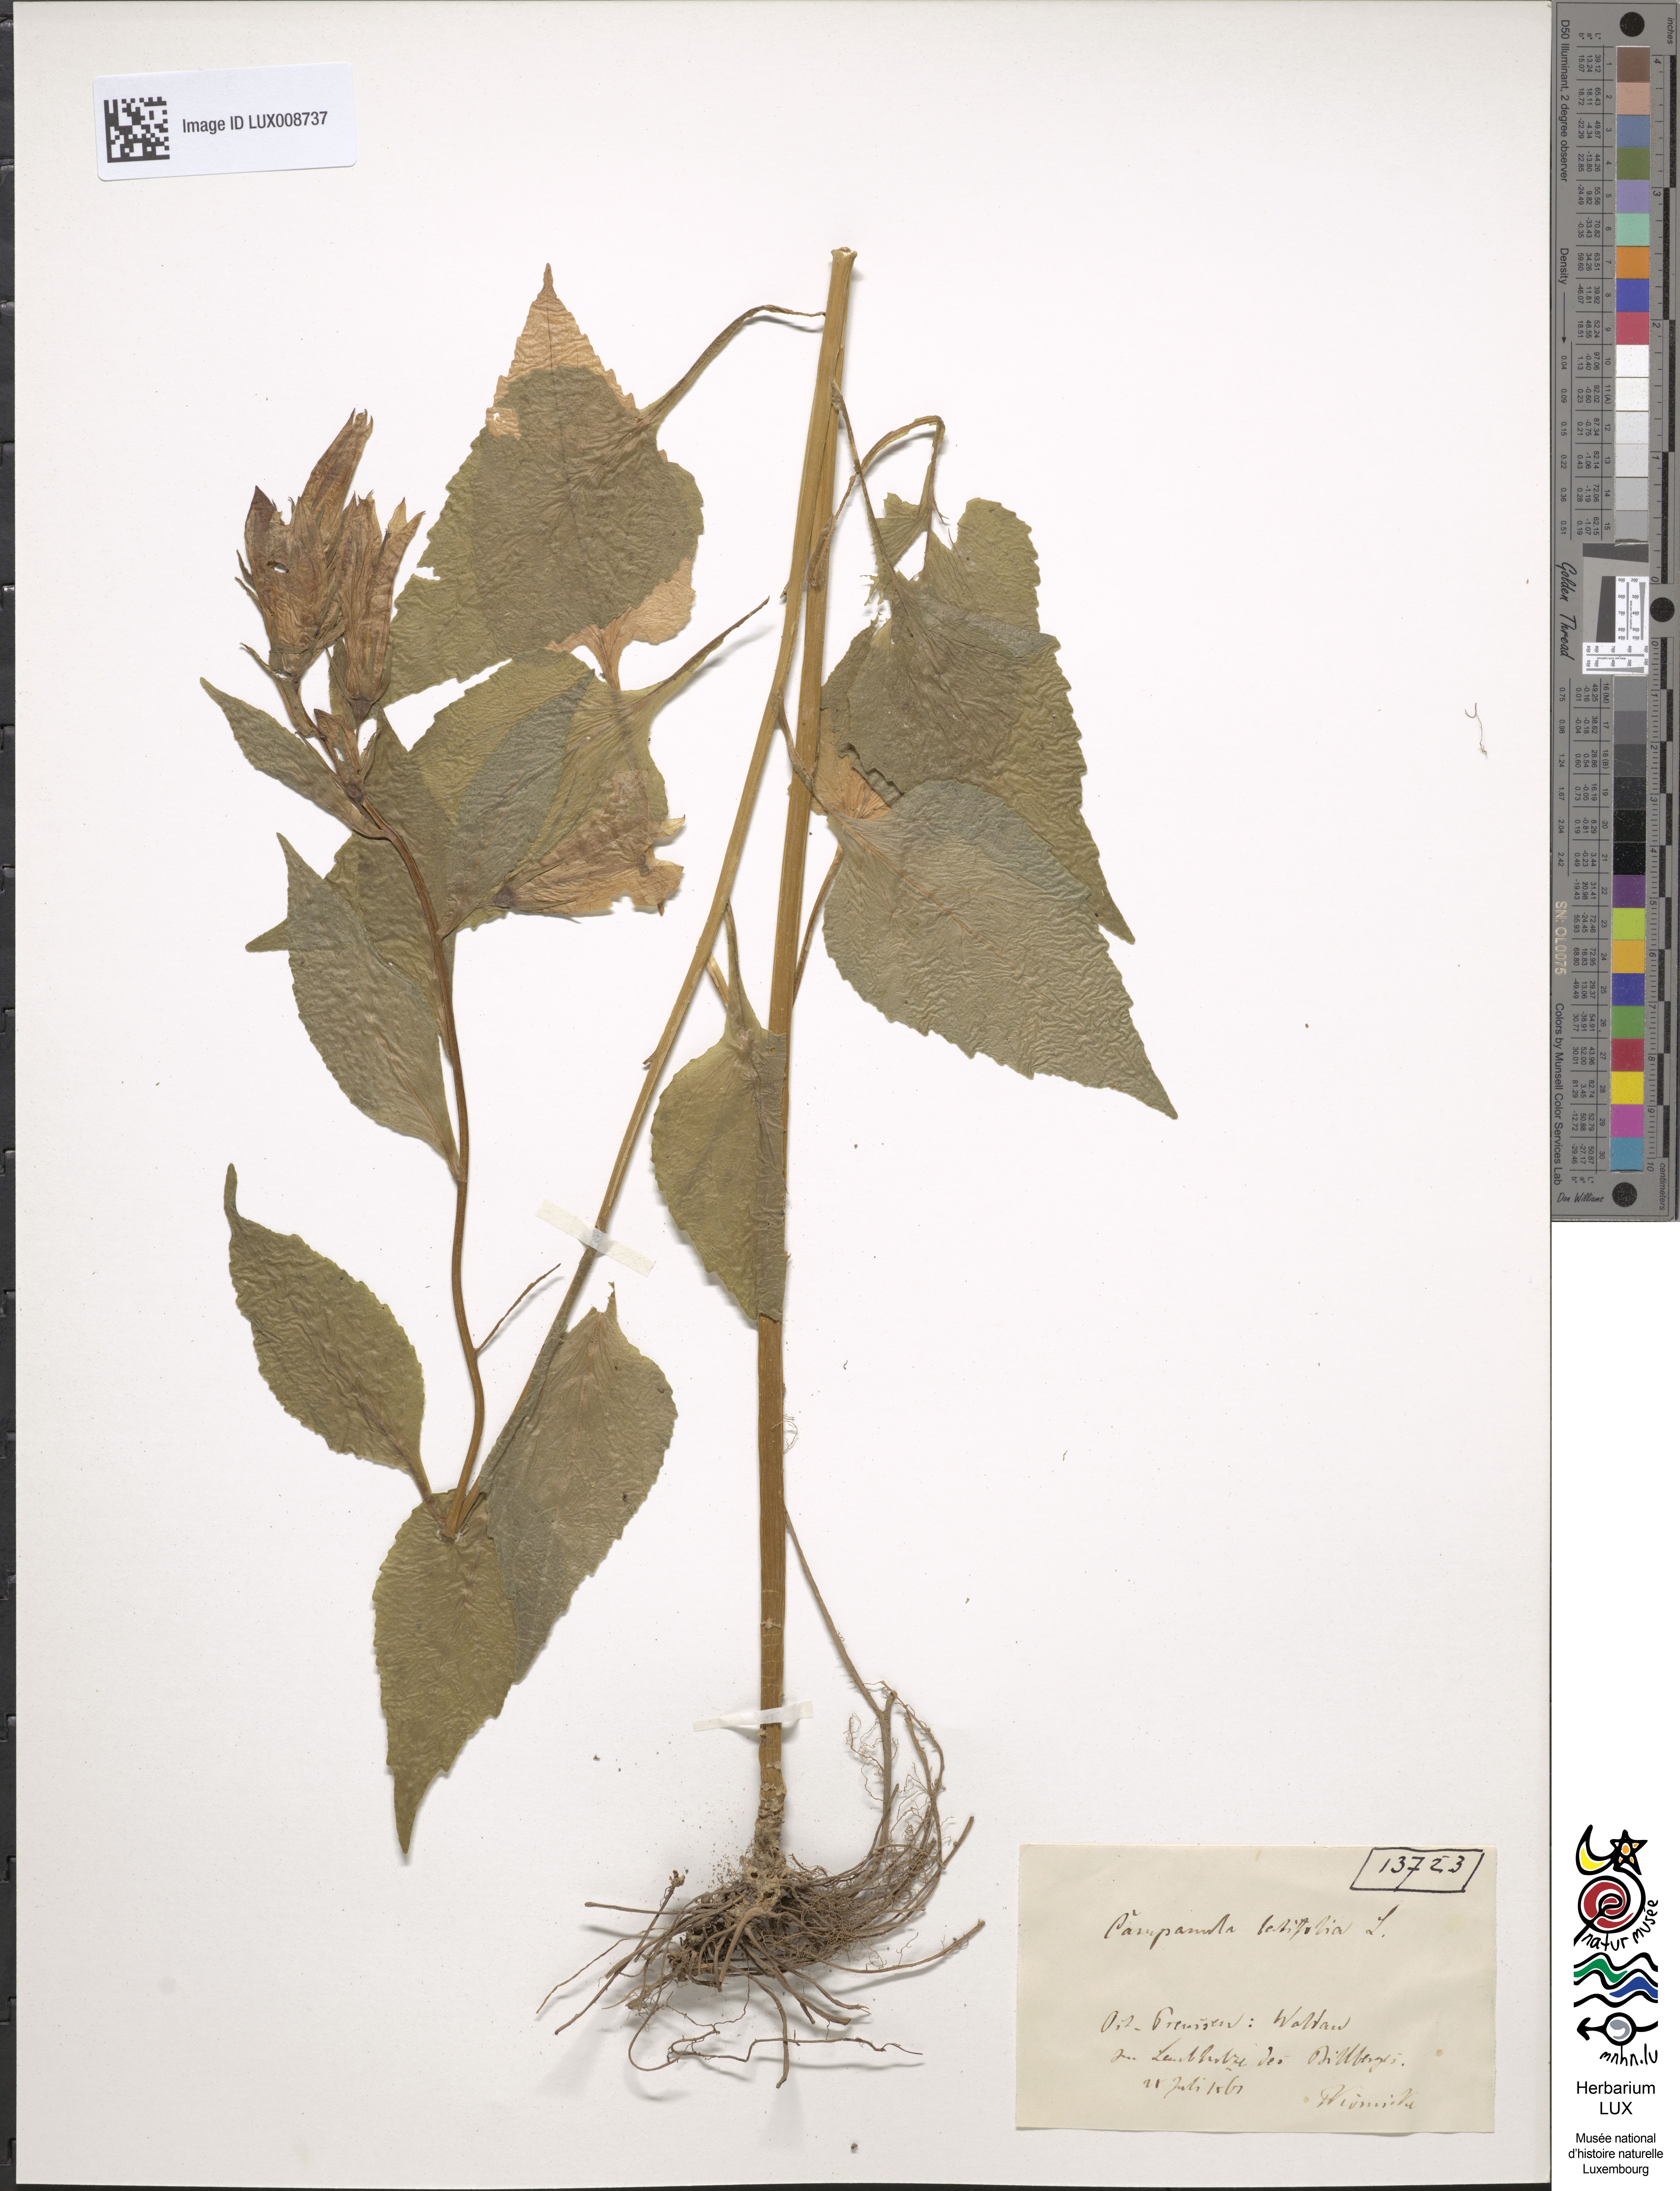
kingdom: Plantae
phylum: Tracheophyta
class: Magnoliopsida
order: Asterales
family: Campanulaceae
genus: Campanula
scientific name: Campanula latifolia
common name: Giant bellflower
